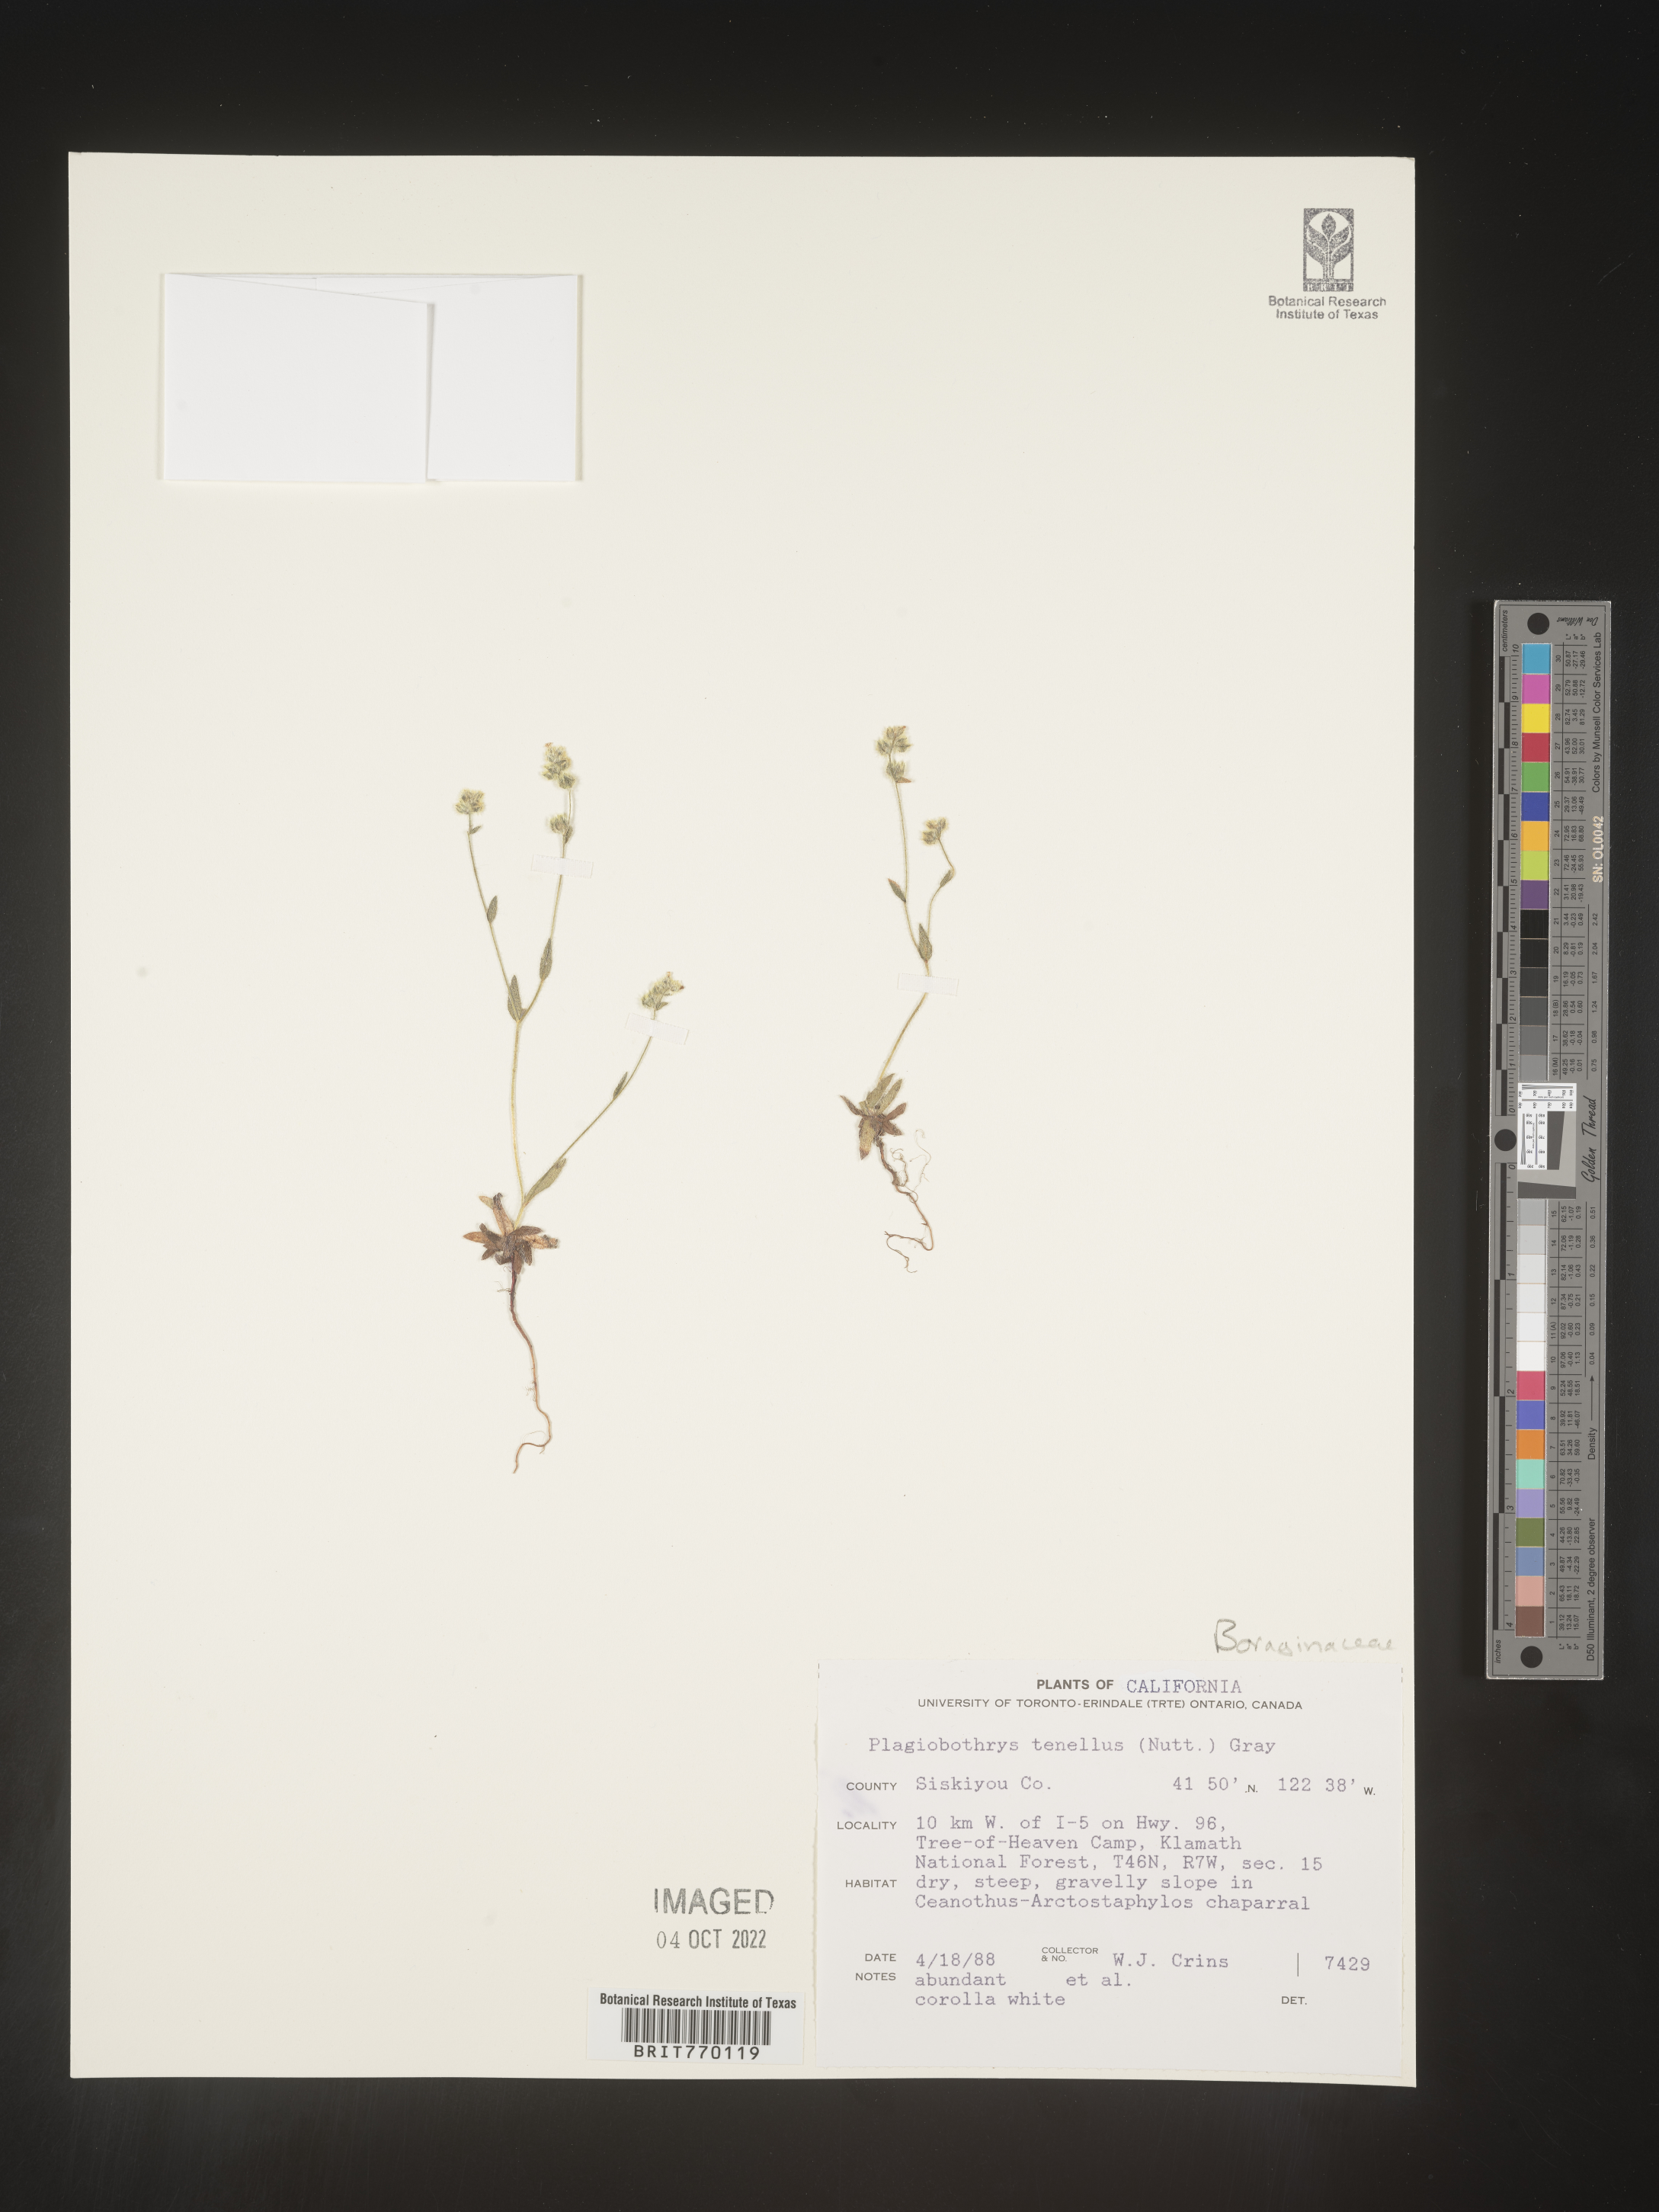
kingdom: Plantae
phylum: Tracheophyta
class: Magnoliopsida
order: Boraginales
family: Boraginaceae
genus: Plagiobothrys
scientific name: Plagiobothrys
